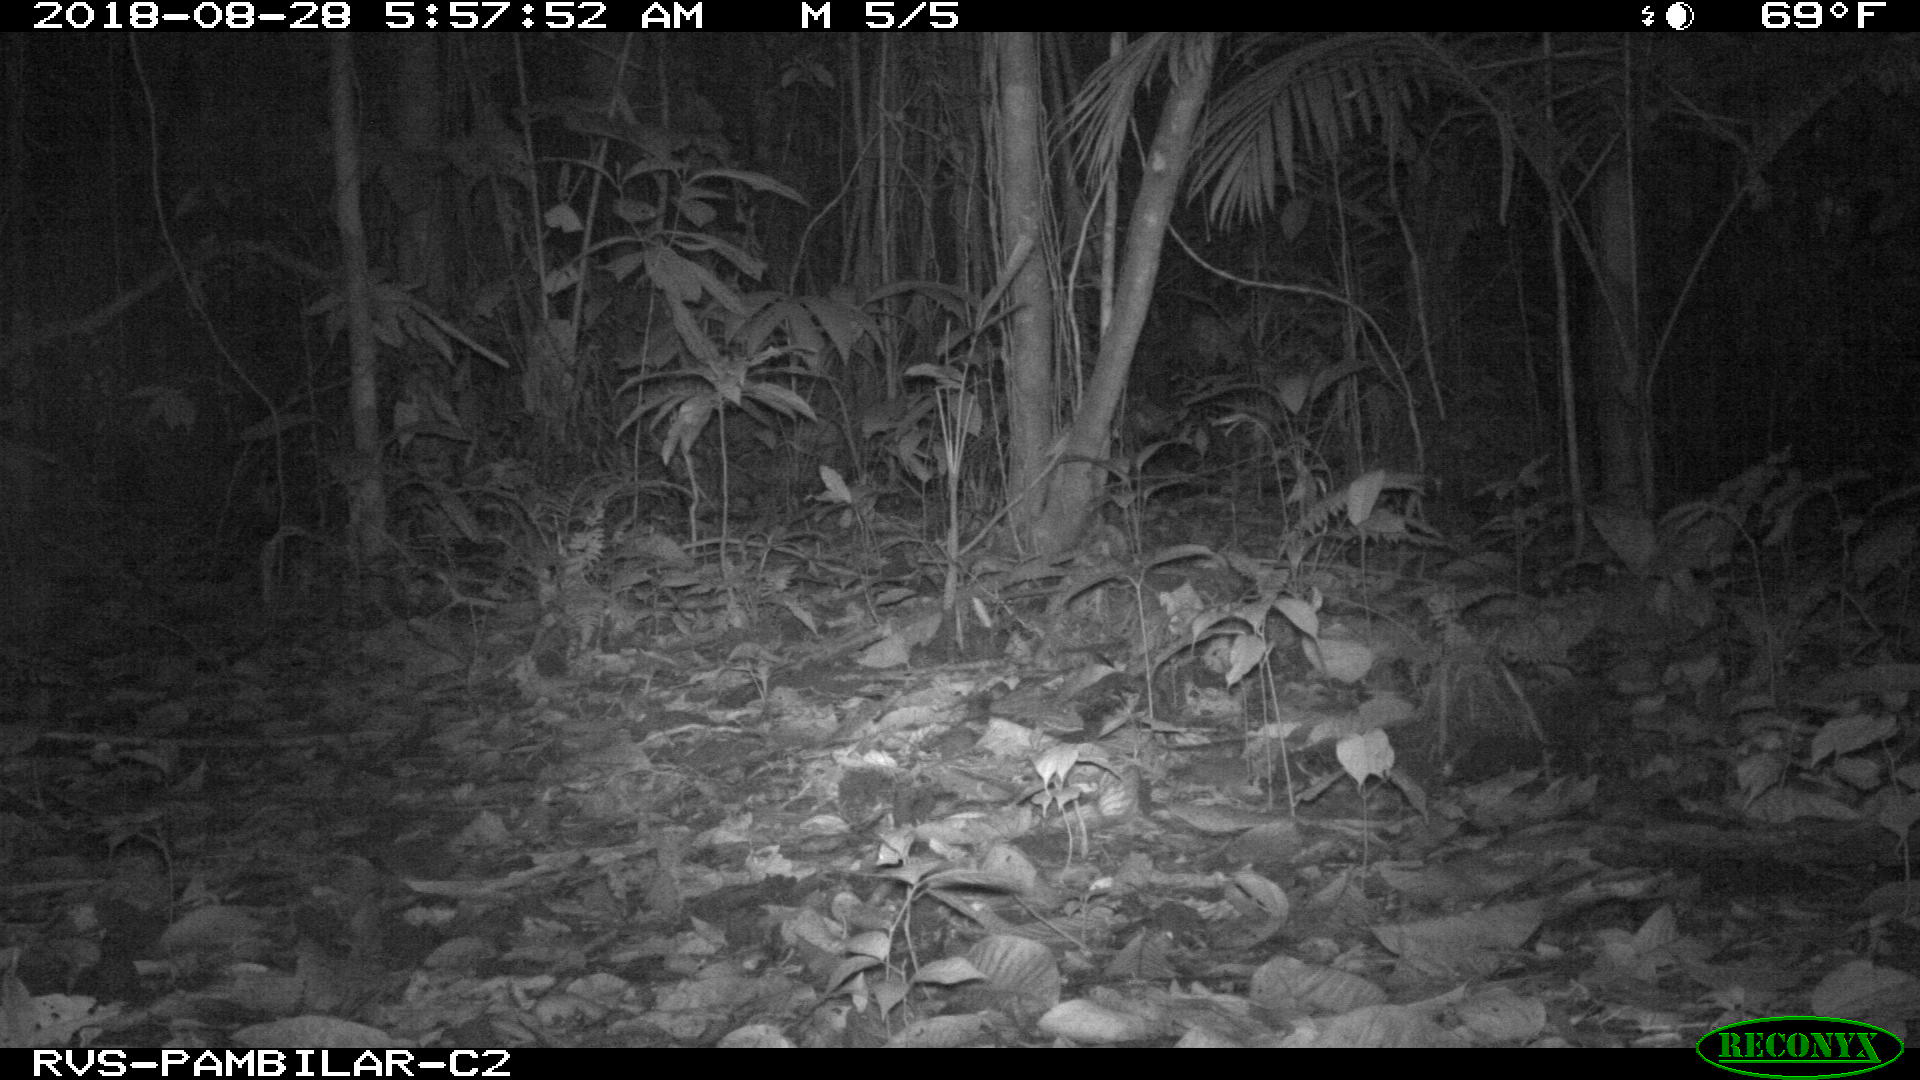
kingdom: Animalia
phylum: Chordata
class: Mammalia
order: Rodentia
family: Dasyproctidae
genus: Dasyprocta
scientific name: Dasyprocta punctata
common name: Central american agouti
